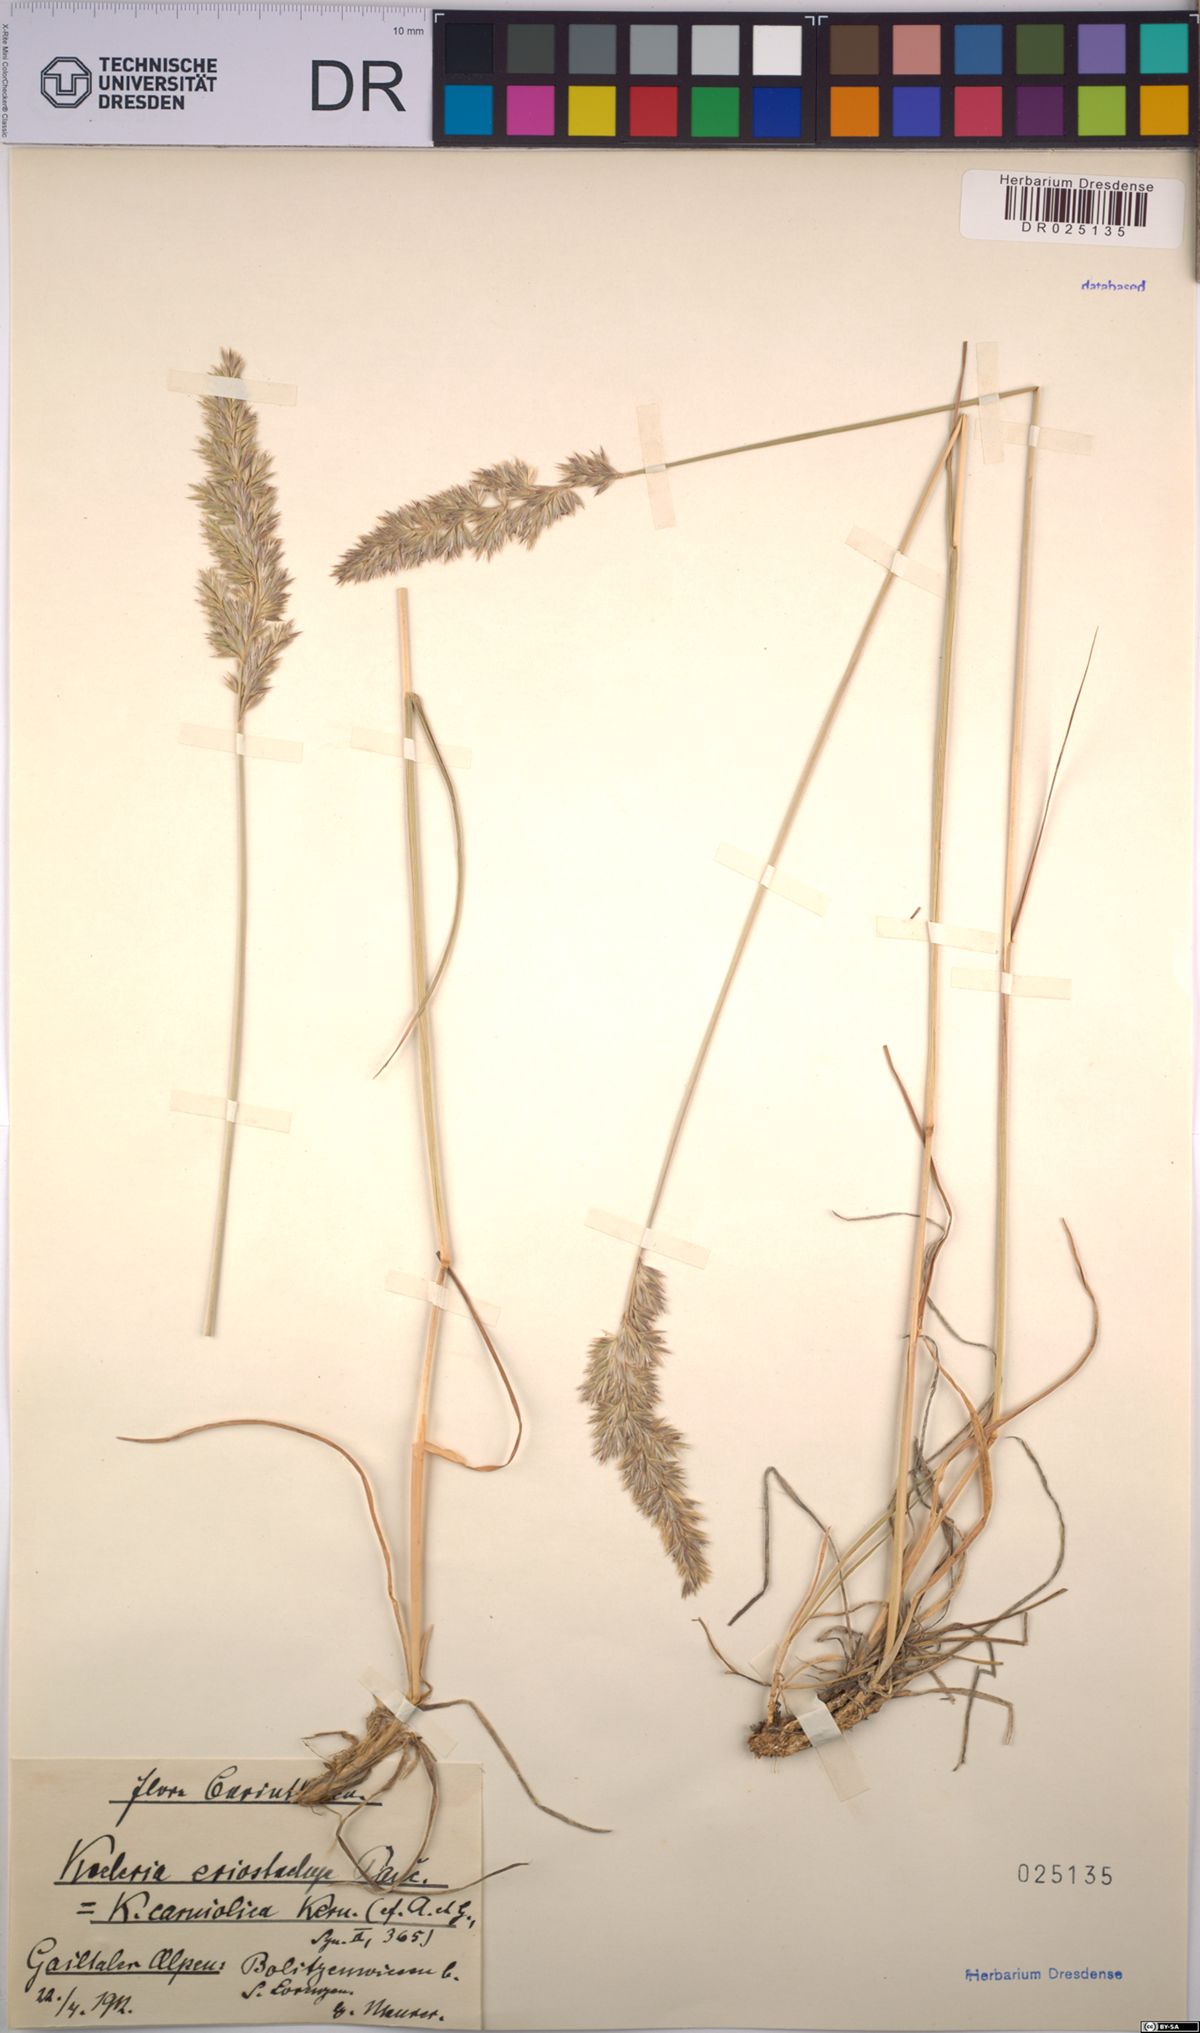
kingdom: Plantae
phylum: Tracheophyta
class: Liliopsida
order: Poales
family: Poaceae
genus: Koeleria
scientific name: Koeleria eriostachya
